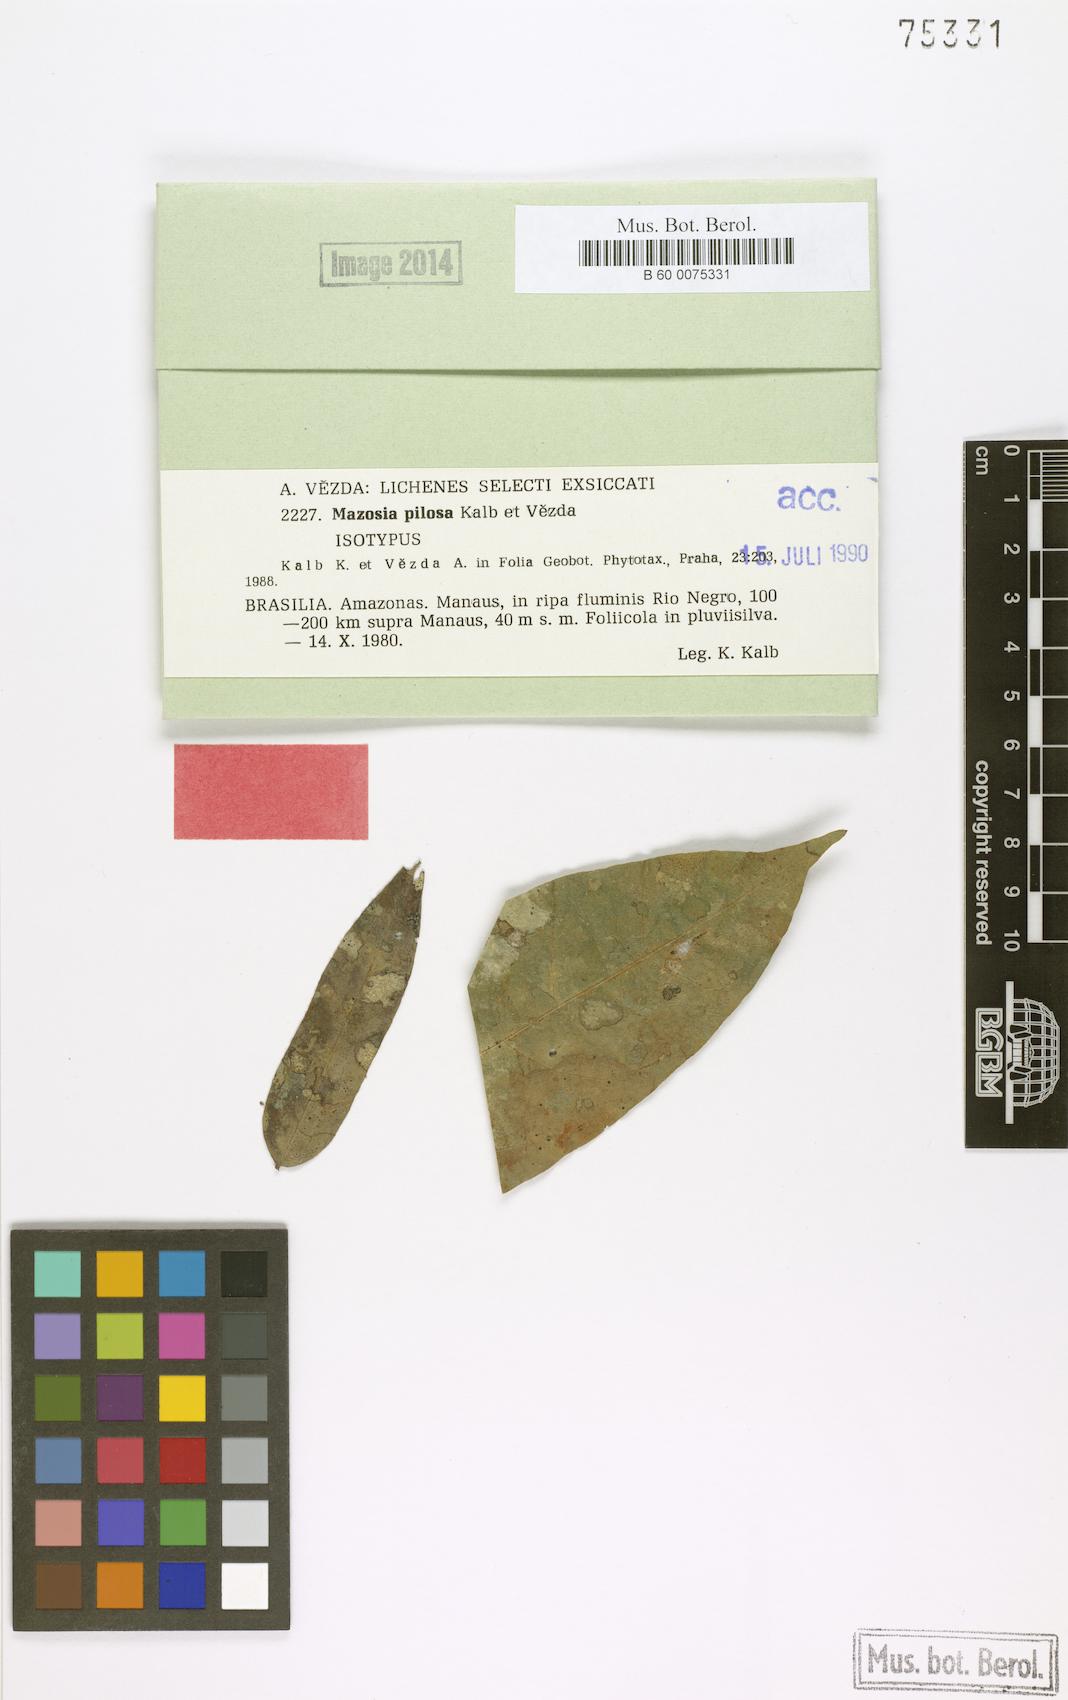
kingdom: Fungi
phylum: Ascomycota
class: Arthoniomycetes
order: Arthoniales
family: Roccellaceae
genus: Mazosia
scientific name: Mazosia pilosa
